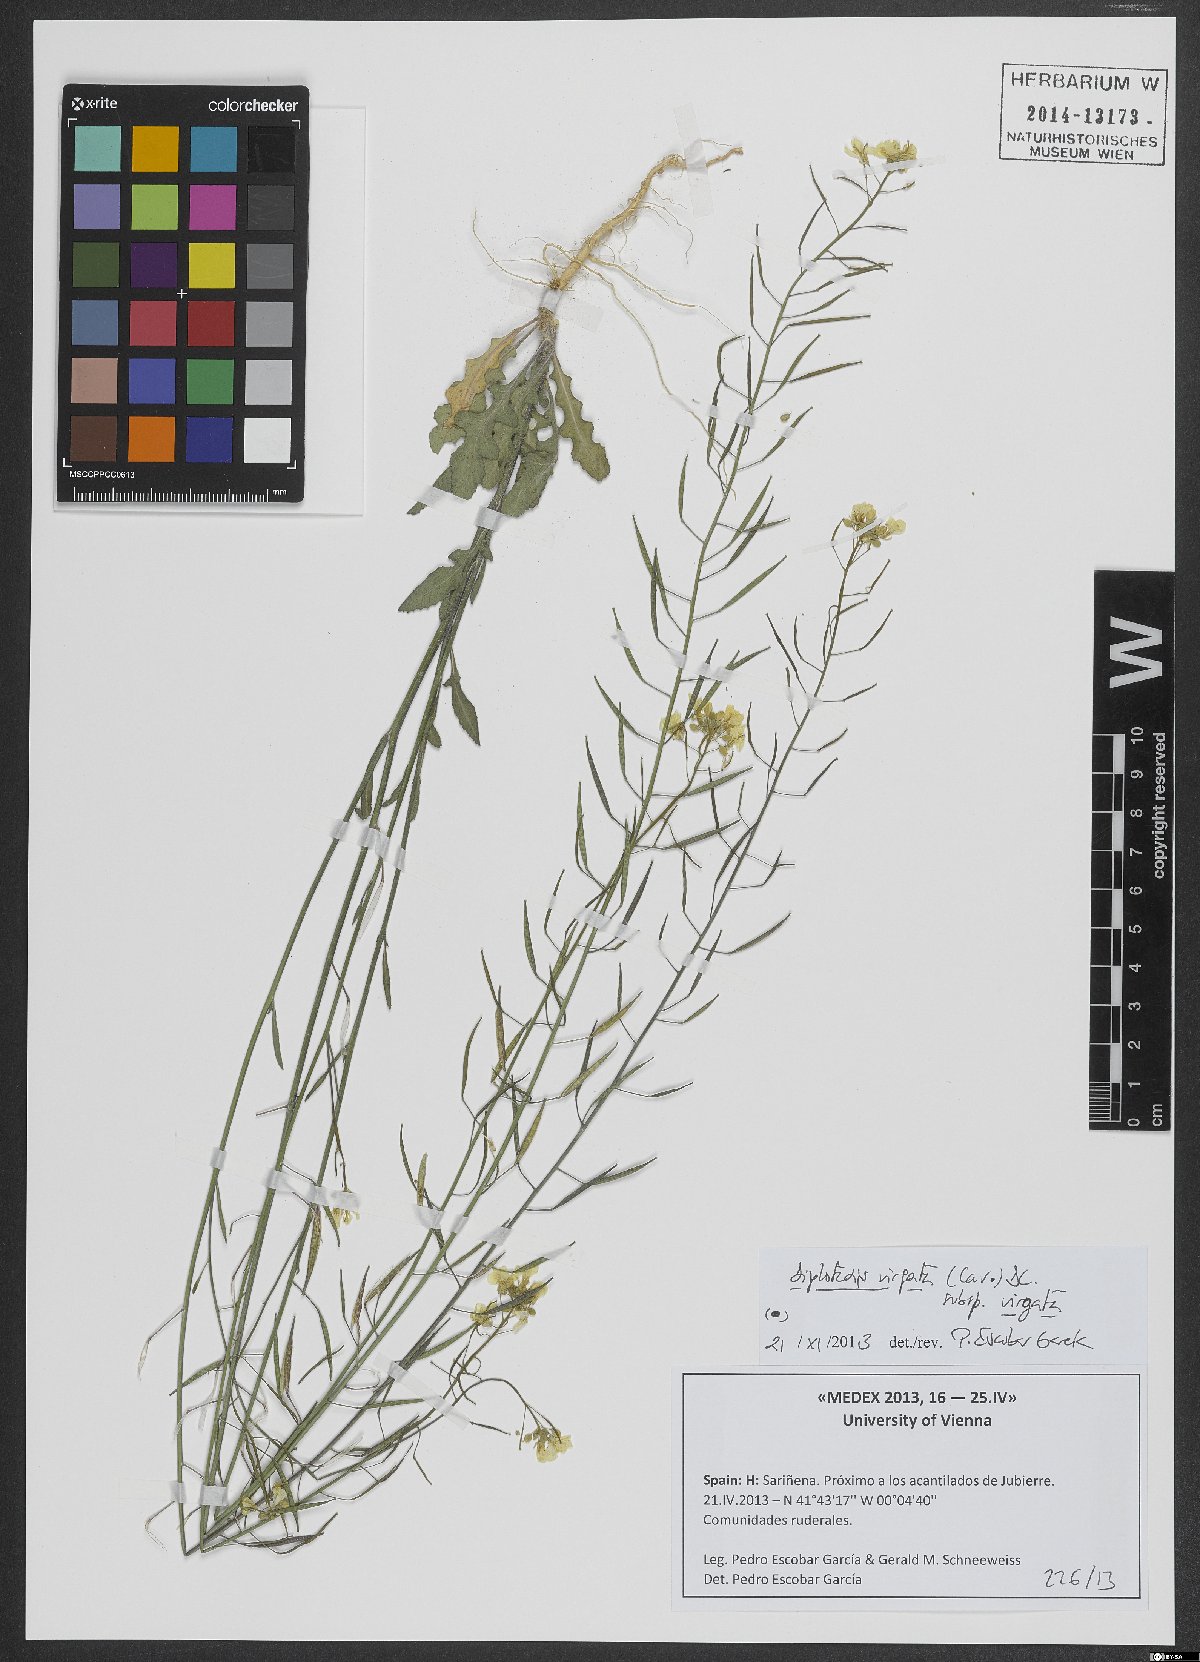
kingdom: Plantae
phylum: Tracheophyta
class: Magnoliopsida
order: Brassicales
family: Brassicaceae
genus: Diplotaxis
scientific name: Diplotaxis virgata
